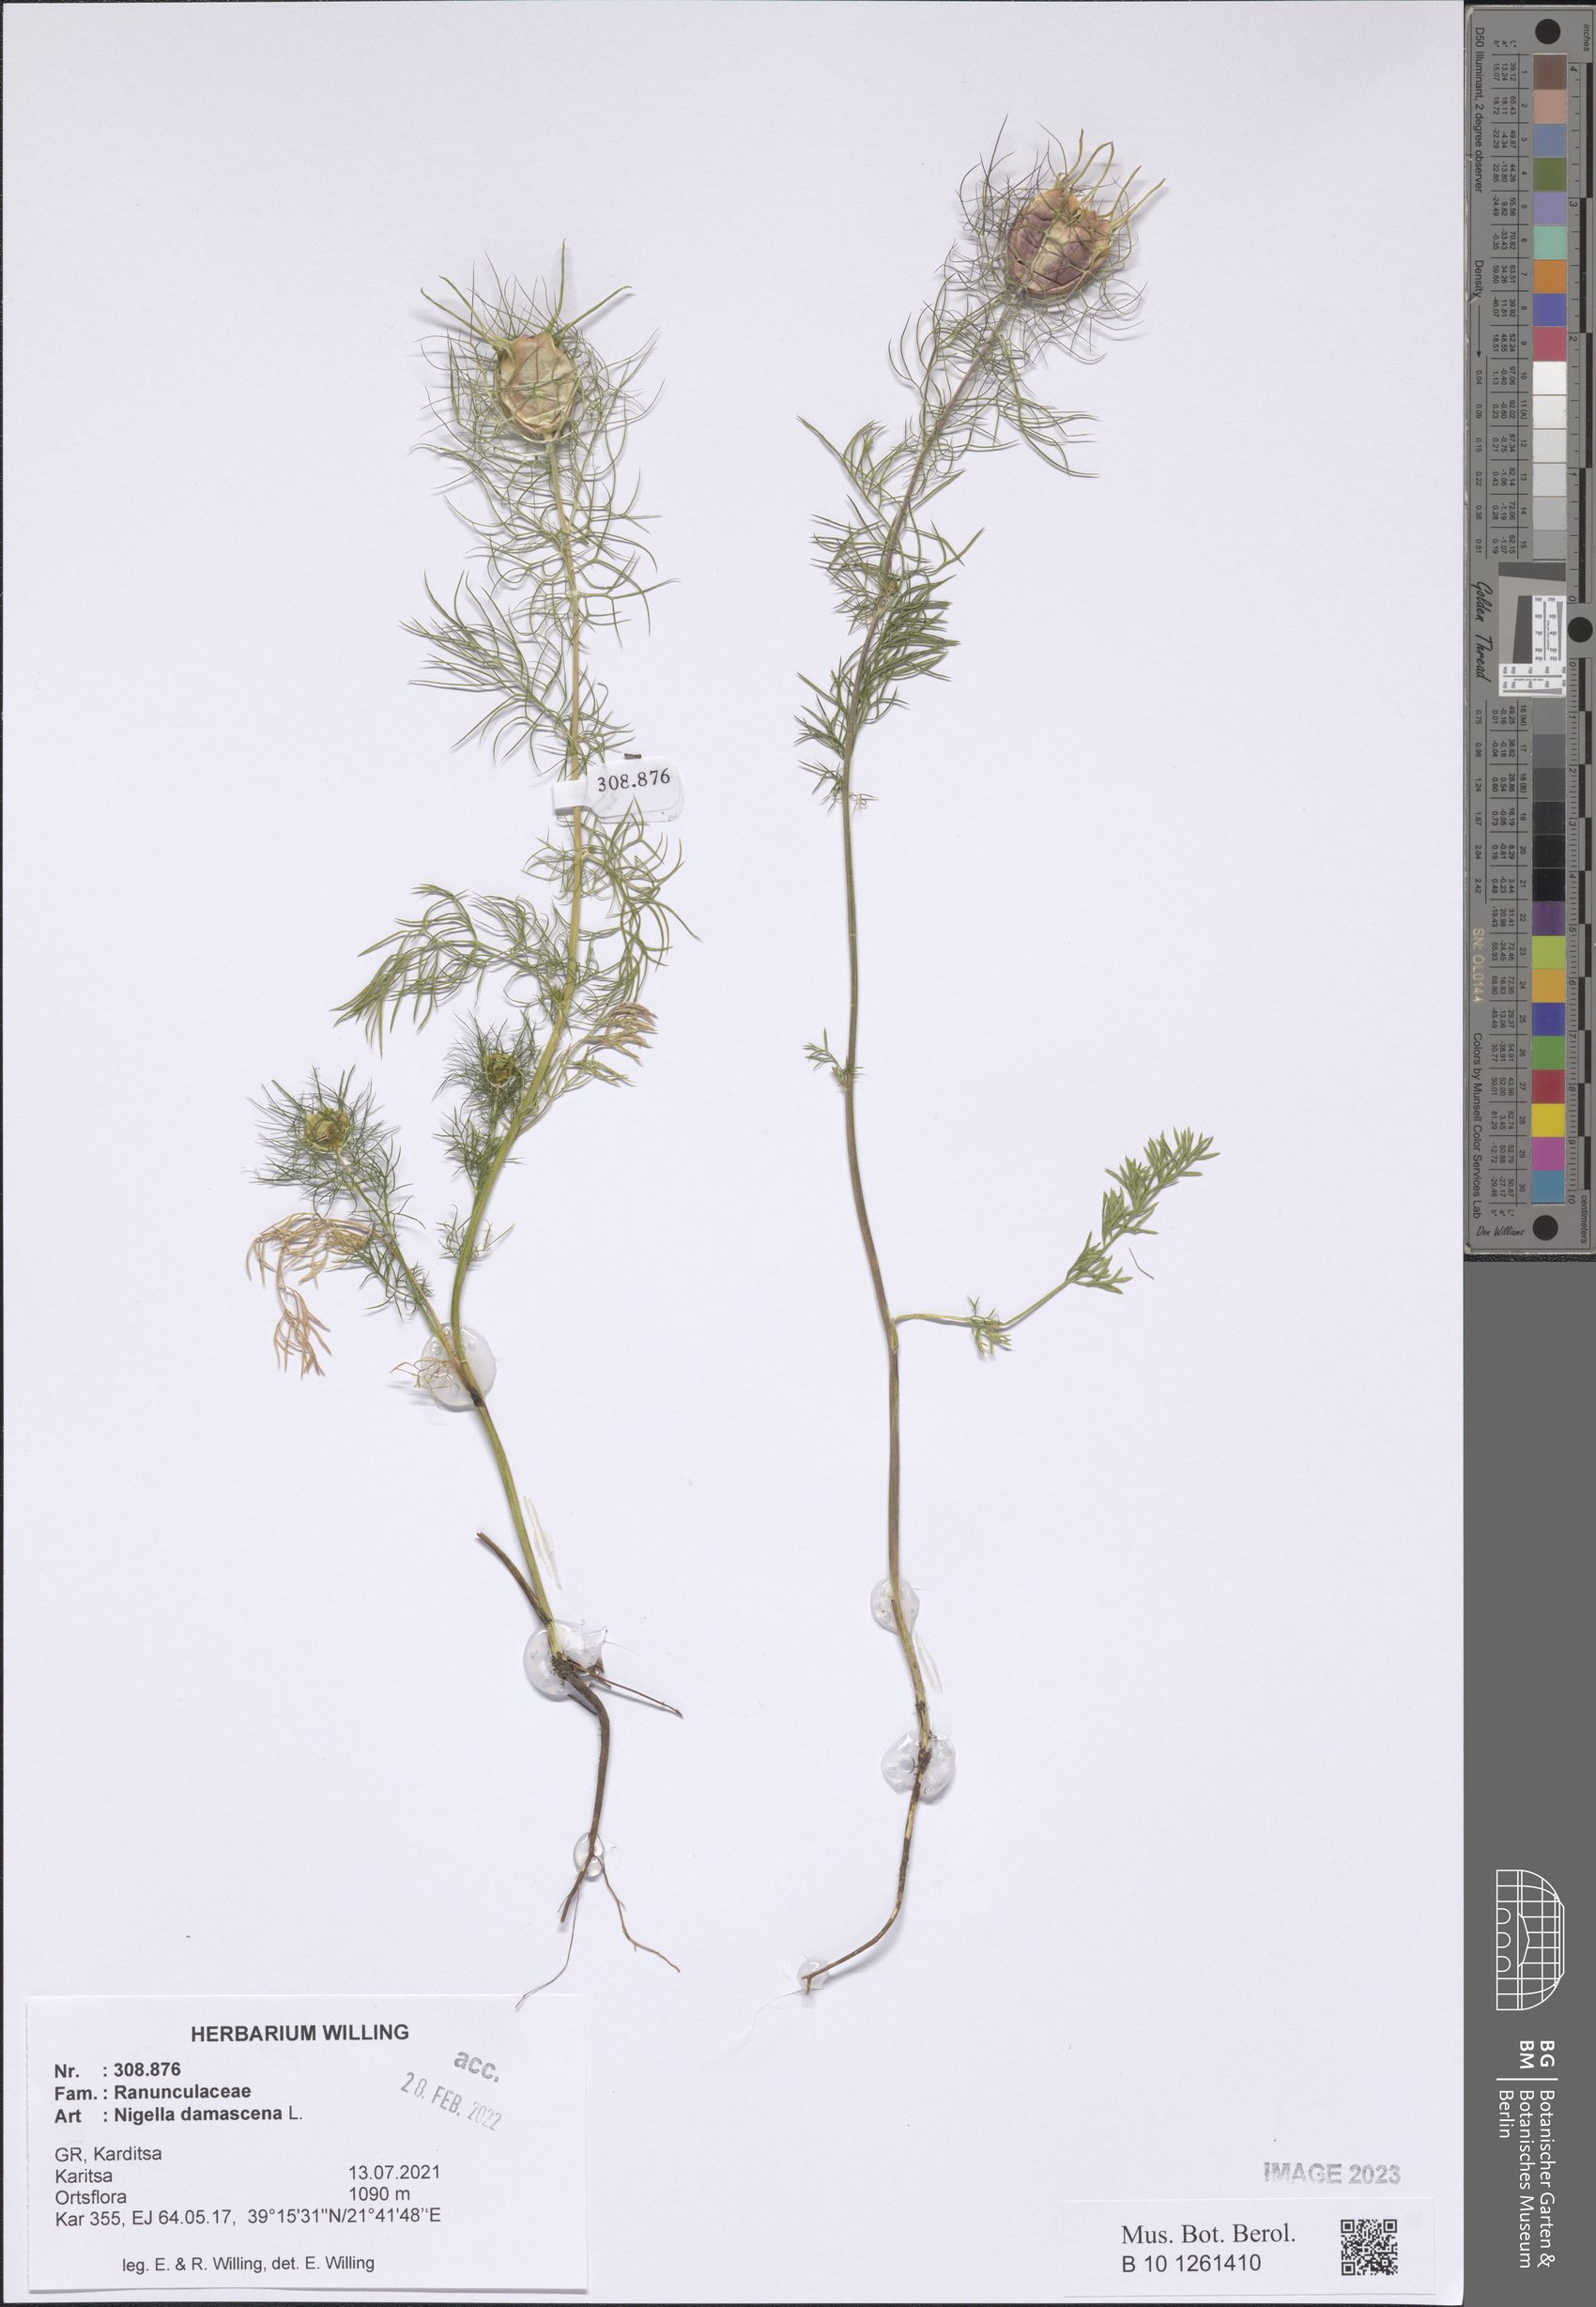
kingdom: Plantae
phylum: Tracheophyta
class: Magnoliopsida
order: Ranunculales
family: Ranunculaceae
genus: Nigella
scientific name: Nigella damascena
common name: Love-in-a-mist
